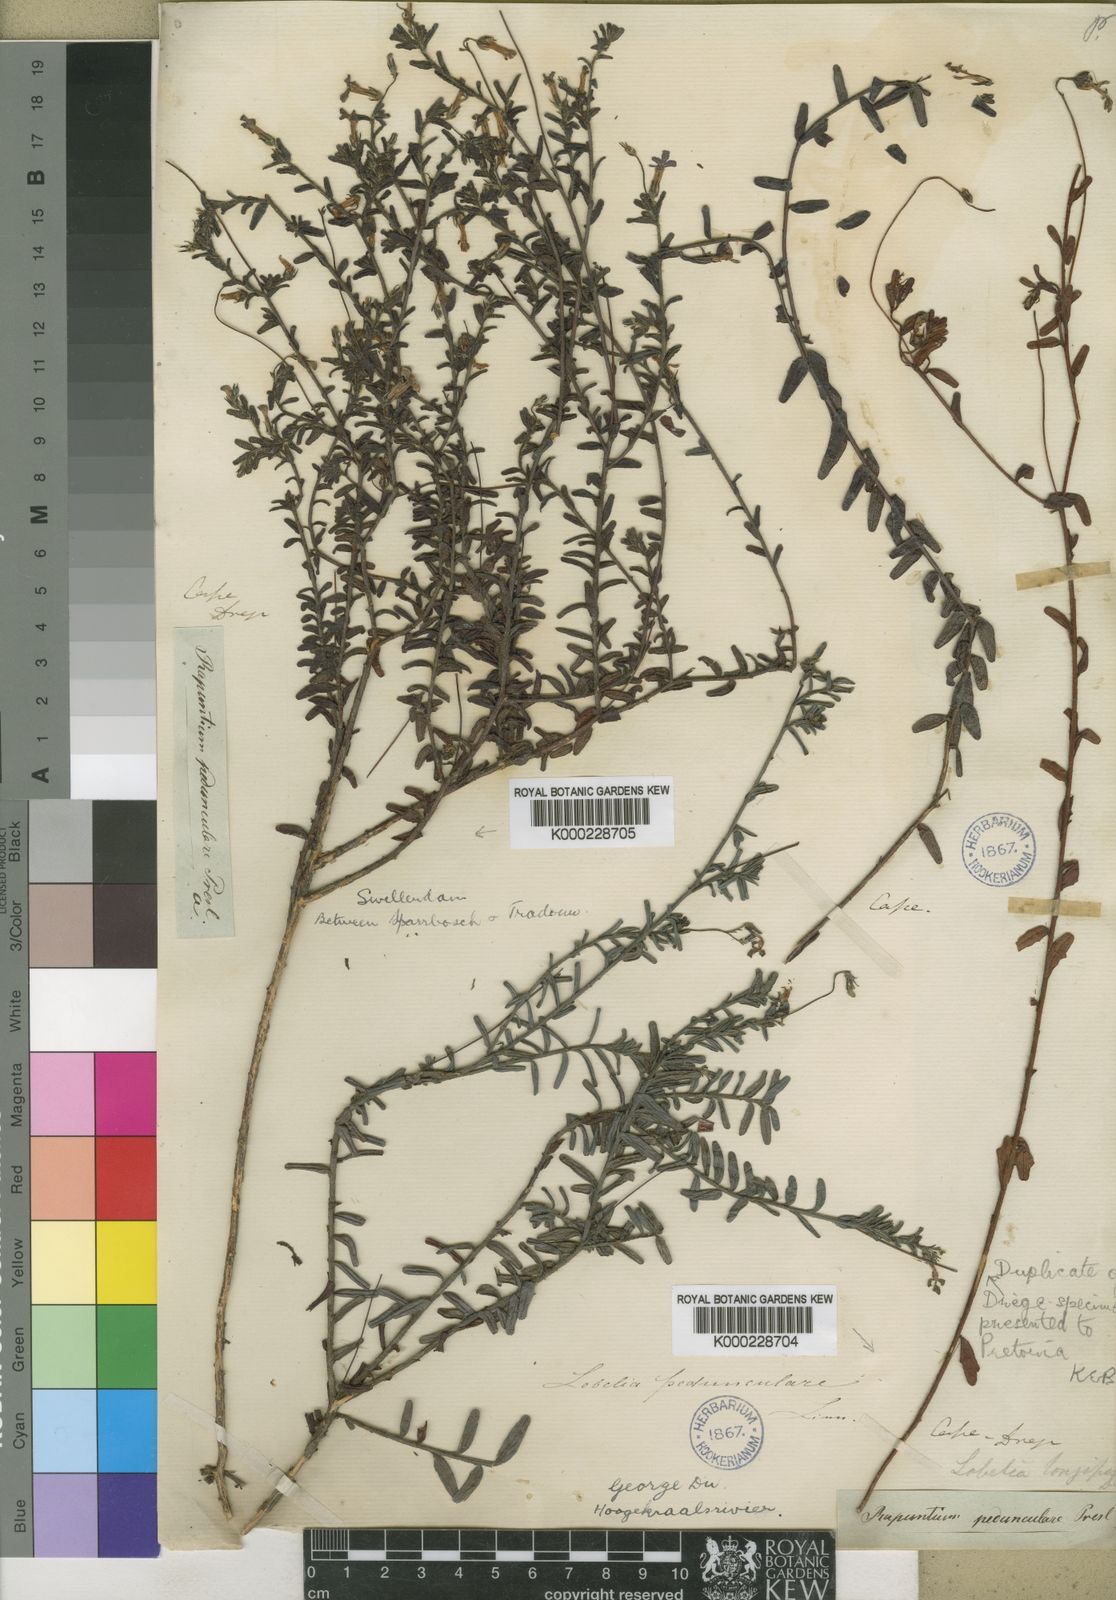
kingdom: Plantae
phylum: Tracheophyta
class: Magnoliopsida
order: Asterales
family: Campanulaceae
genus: Lobelia
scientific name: Lobelia neglecta
